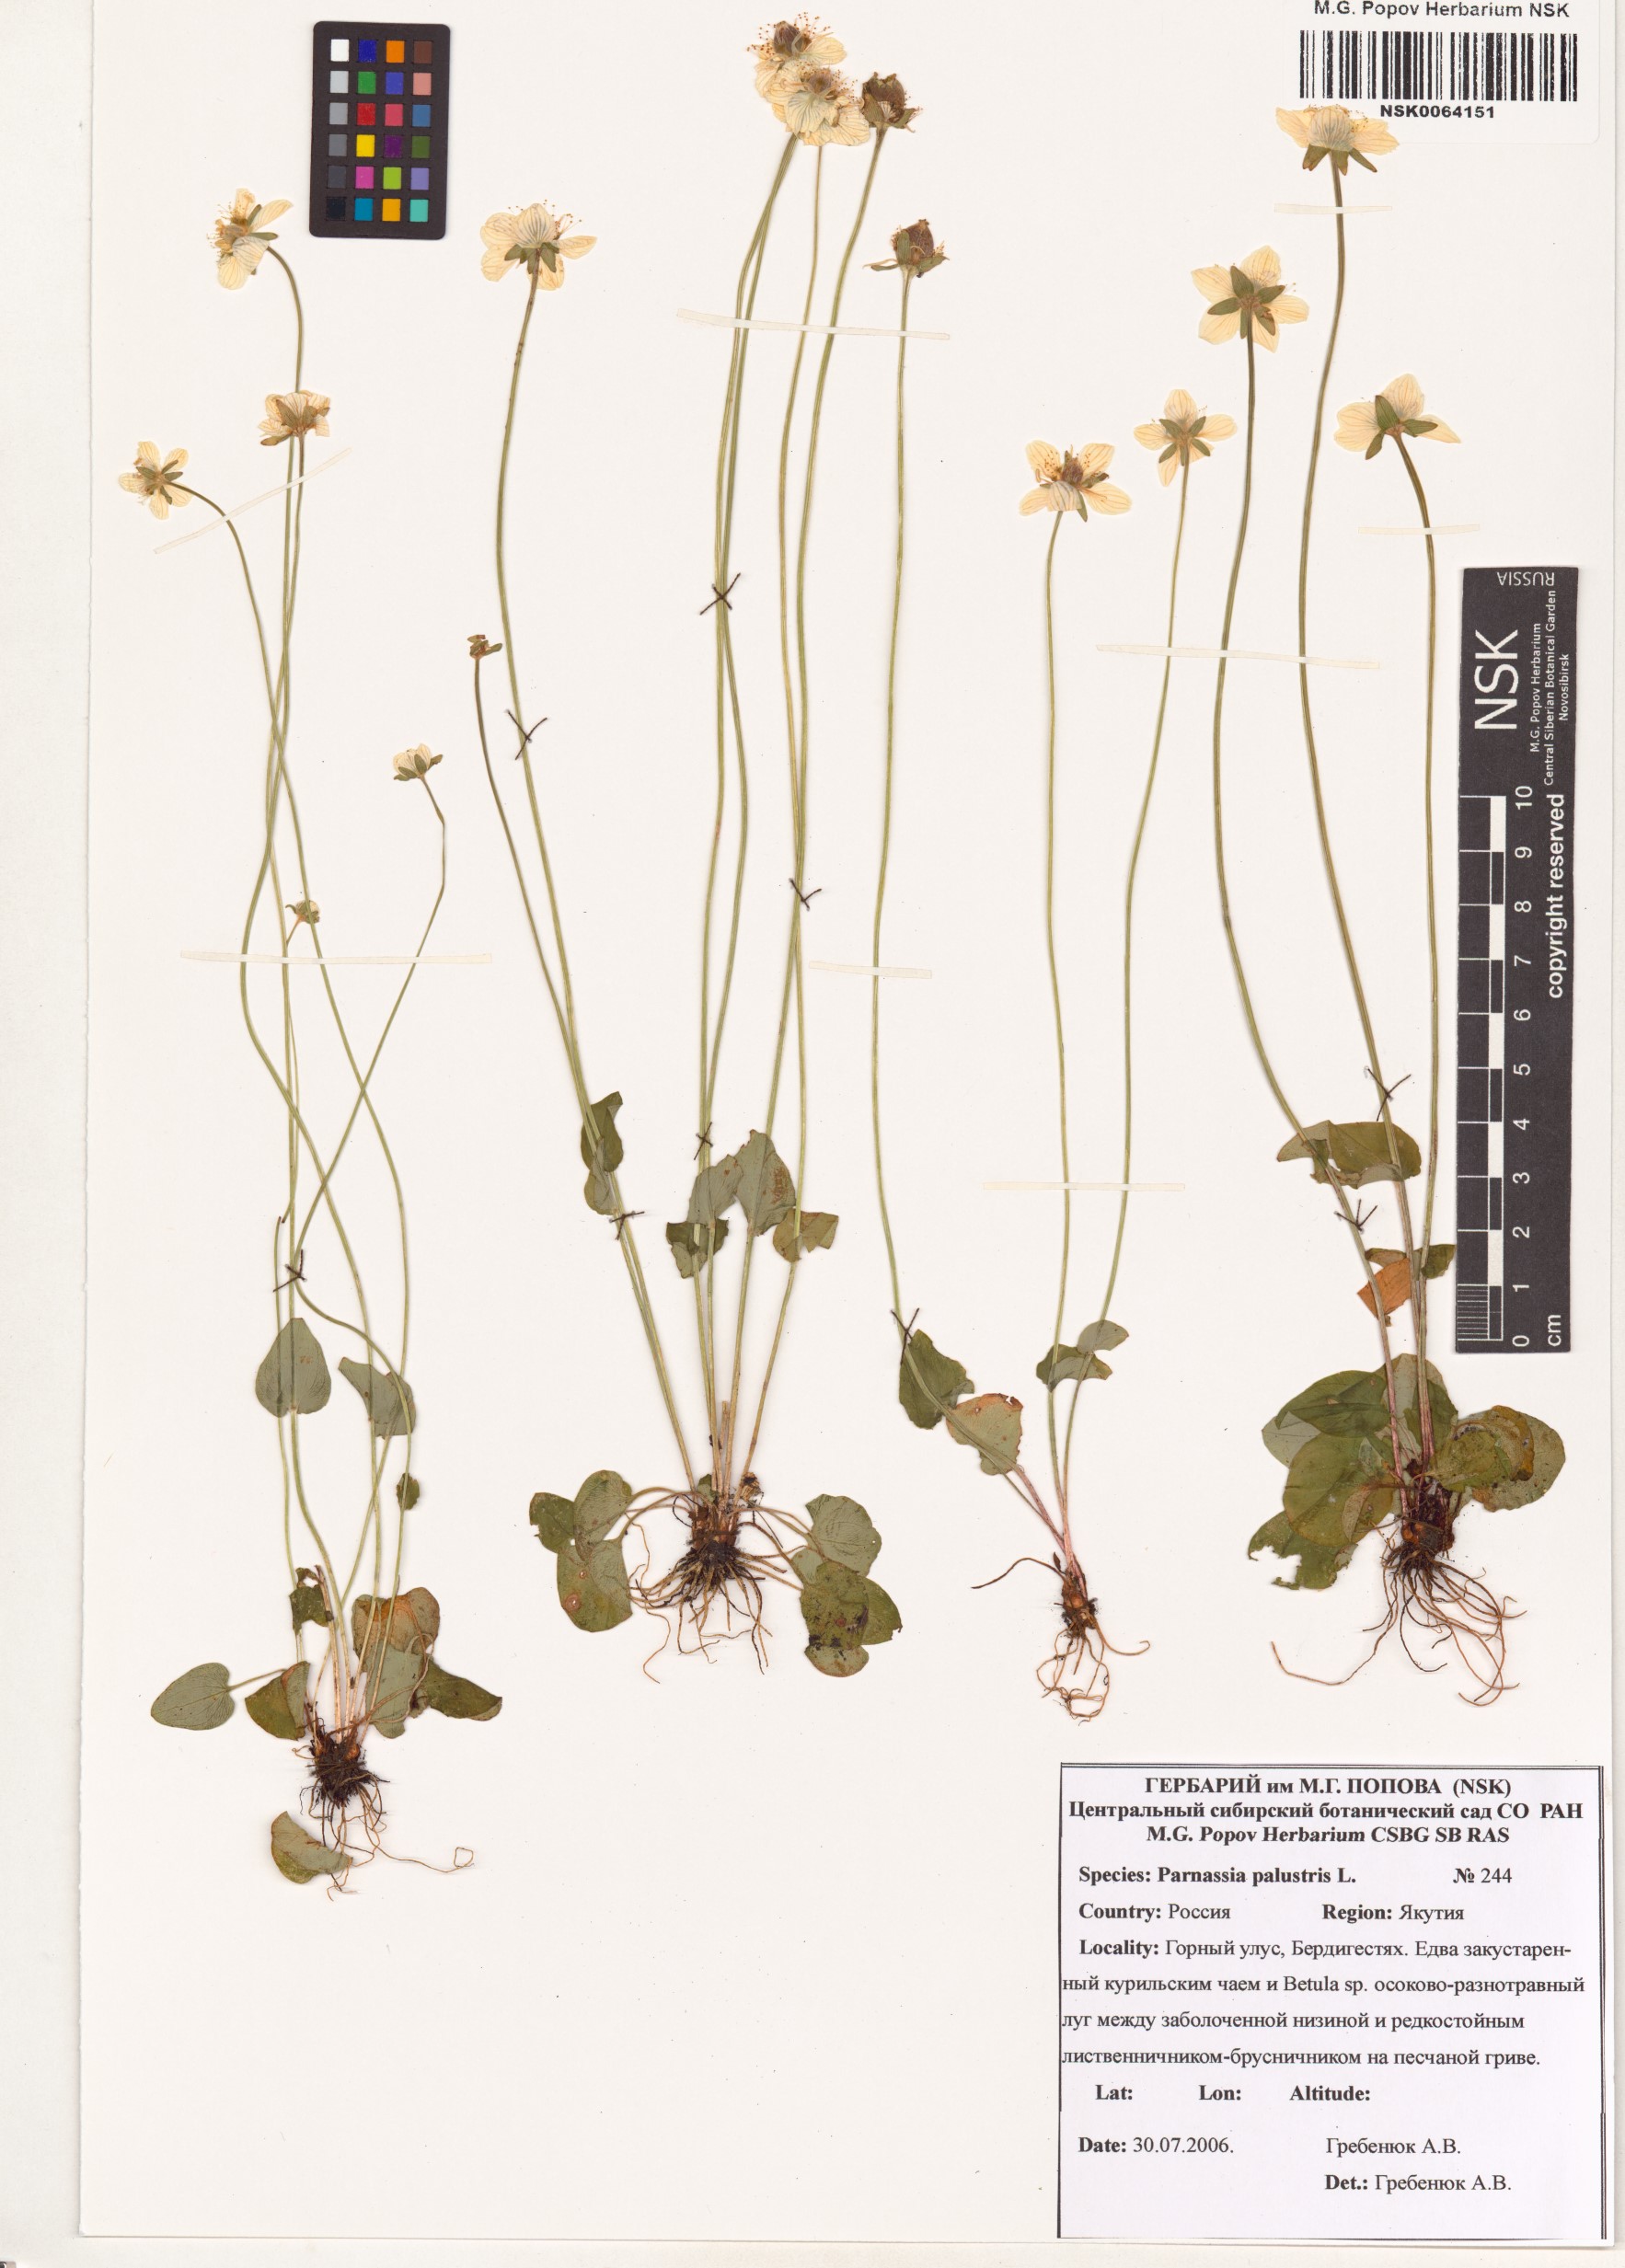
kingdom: Plantae
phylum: Tracheophyta
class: Magnoliopsida
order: Celastrales
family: Parnassiaceae
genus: Parnassia
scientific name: Parnassia palustris
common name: Grass-of-parnassus
